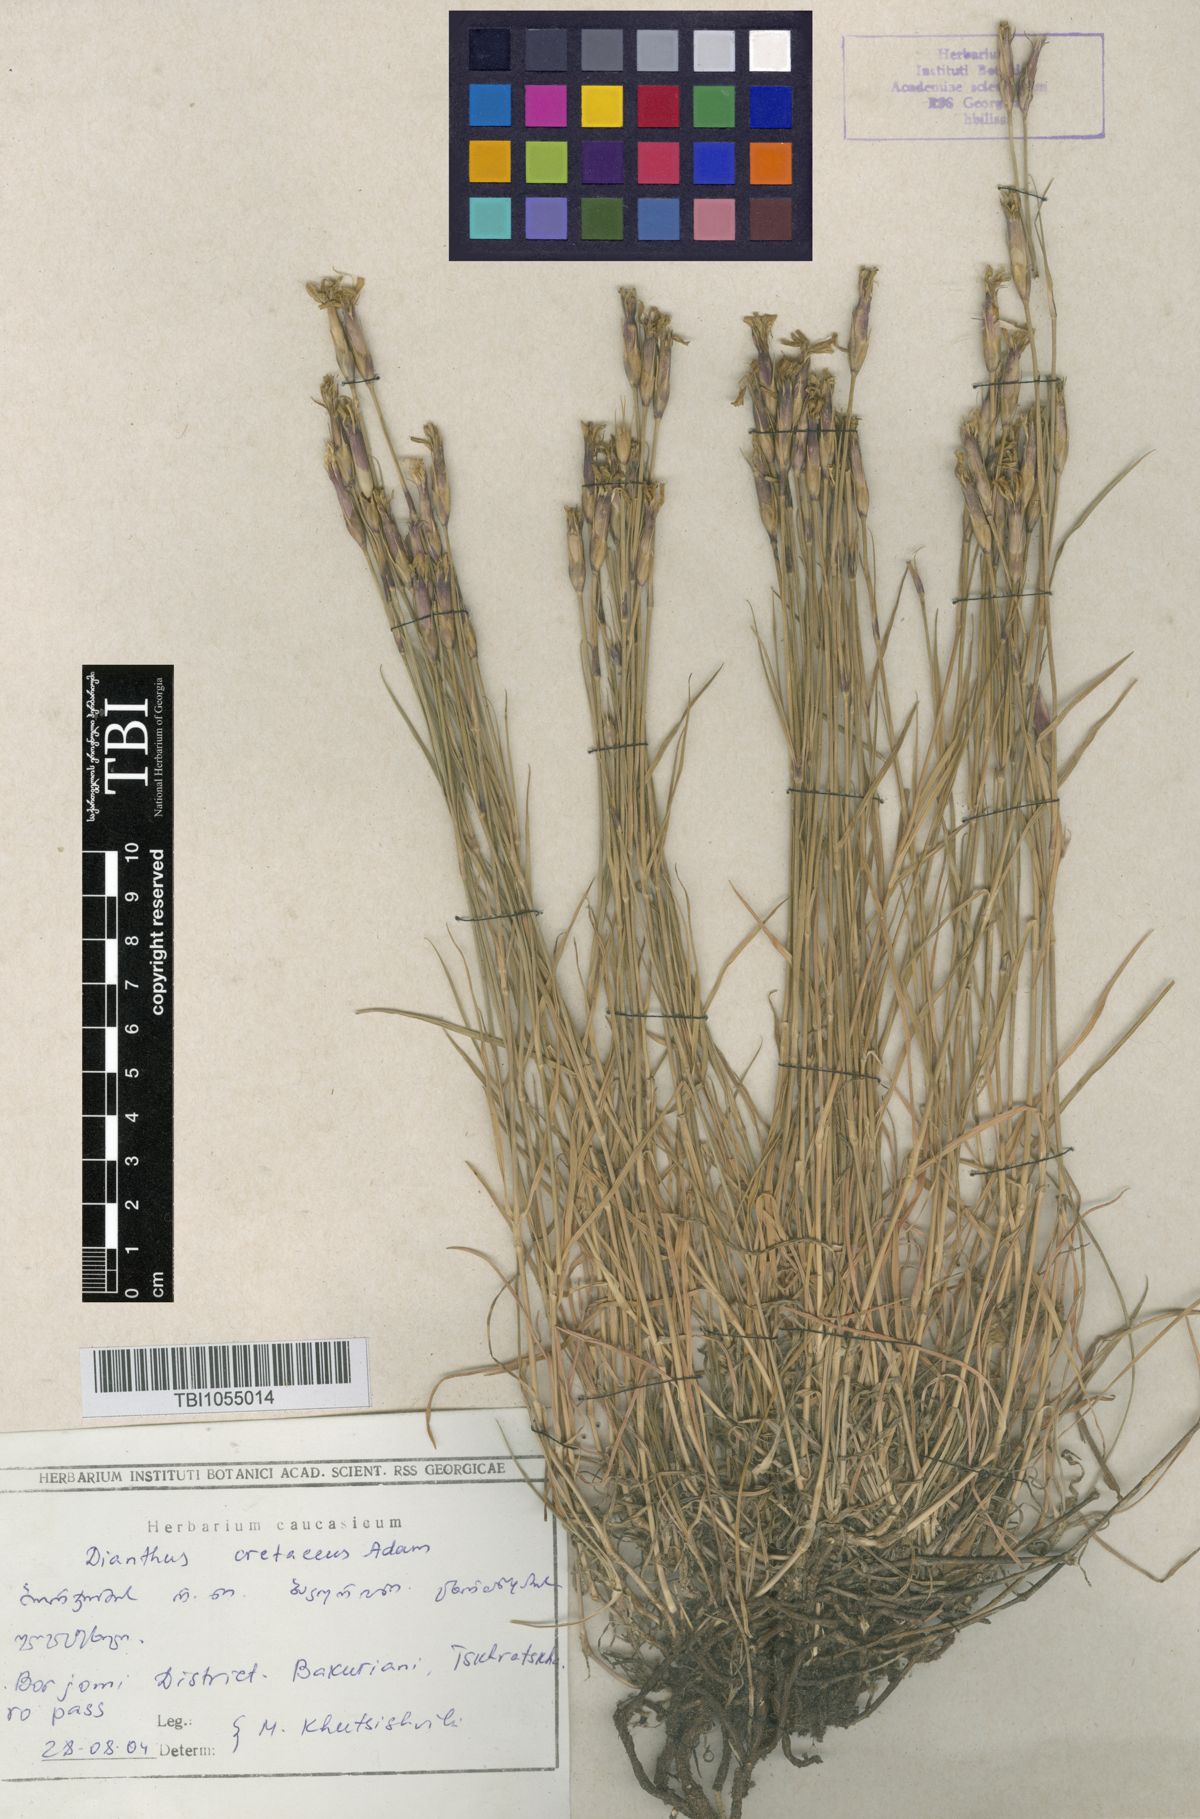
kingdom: Plantae
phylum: Tracheophyta
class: Magnoliopsida
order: Caryophyllales
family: Caryophyllaceae
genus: Dianthus
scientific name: Dianthus cretaceus
